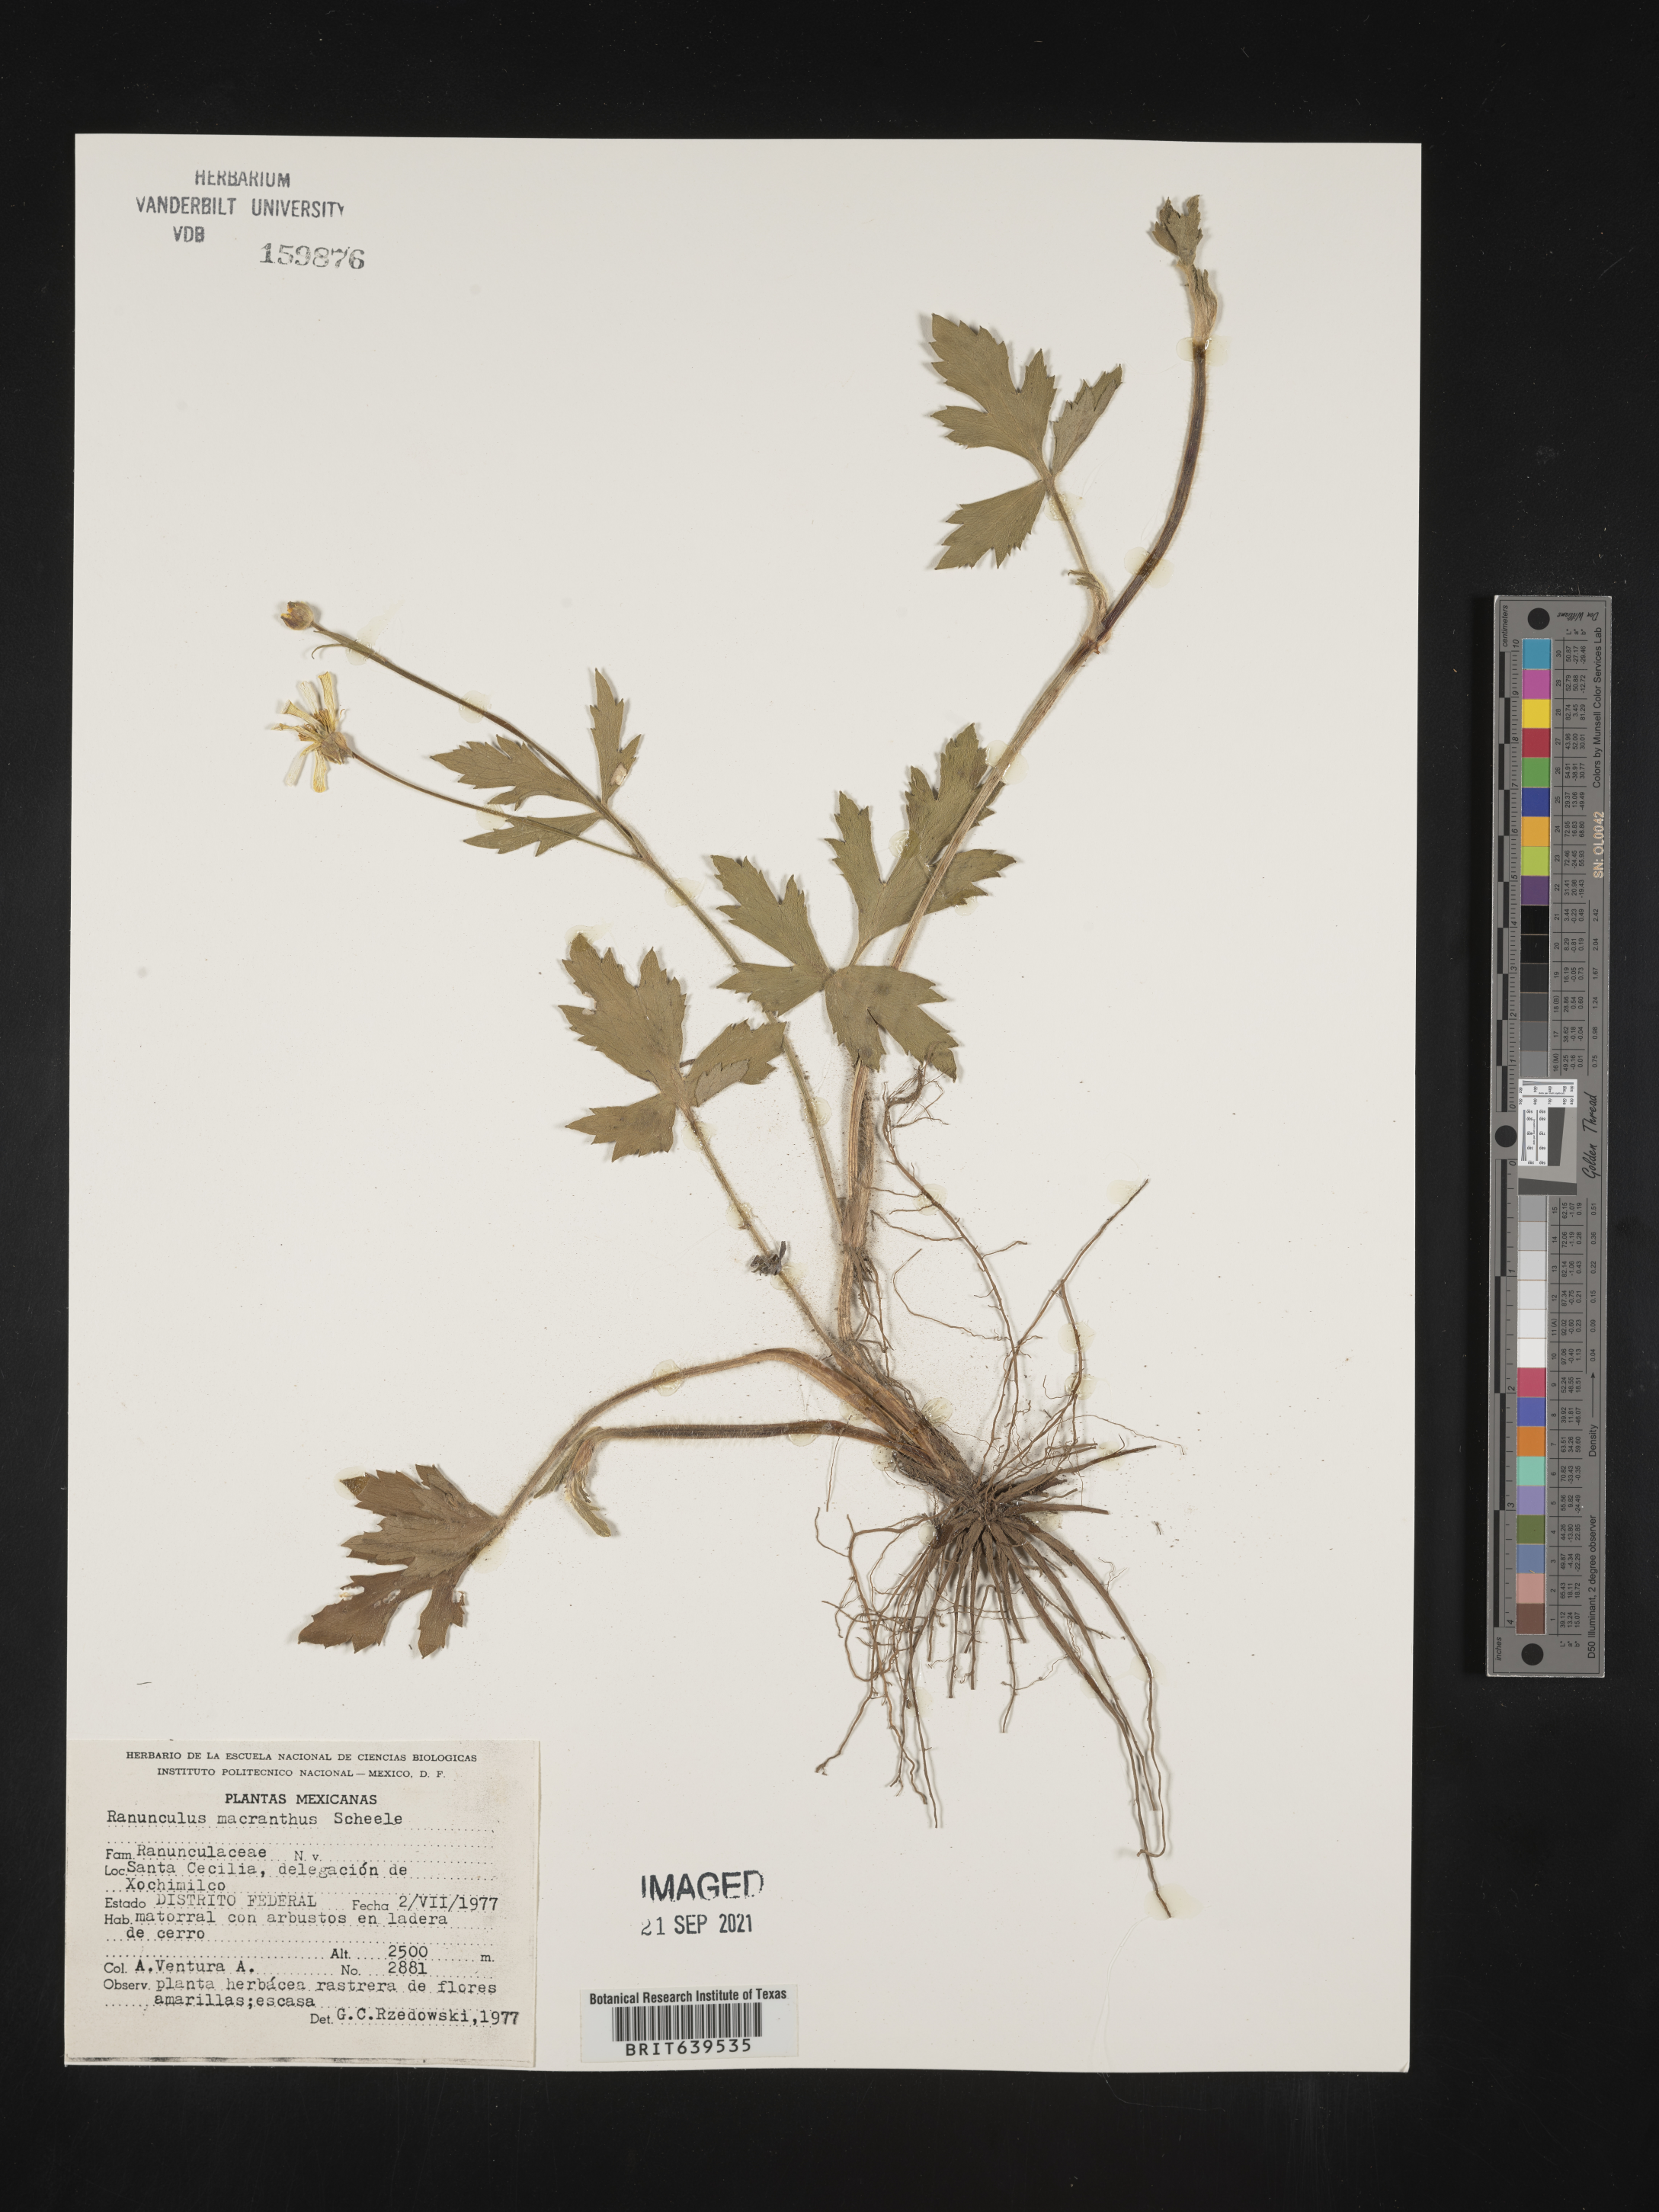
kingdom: Plantae
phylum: Tracheophyta
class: Magnoliopsida
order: Ranunculales
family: Ranunculaceae
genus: Ranunculus
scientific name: Ranunculus
